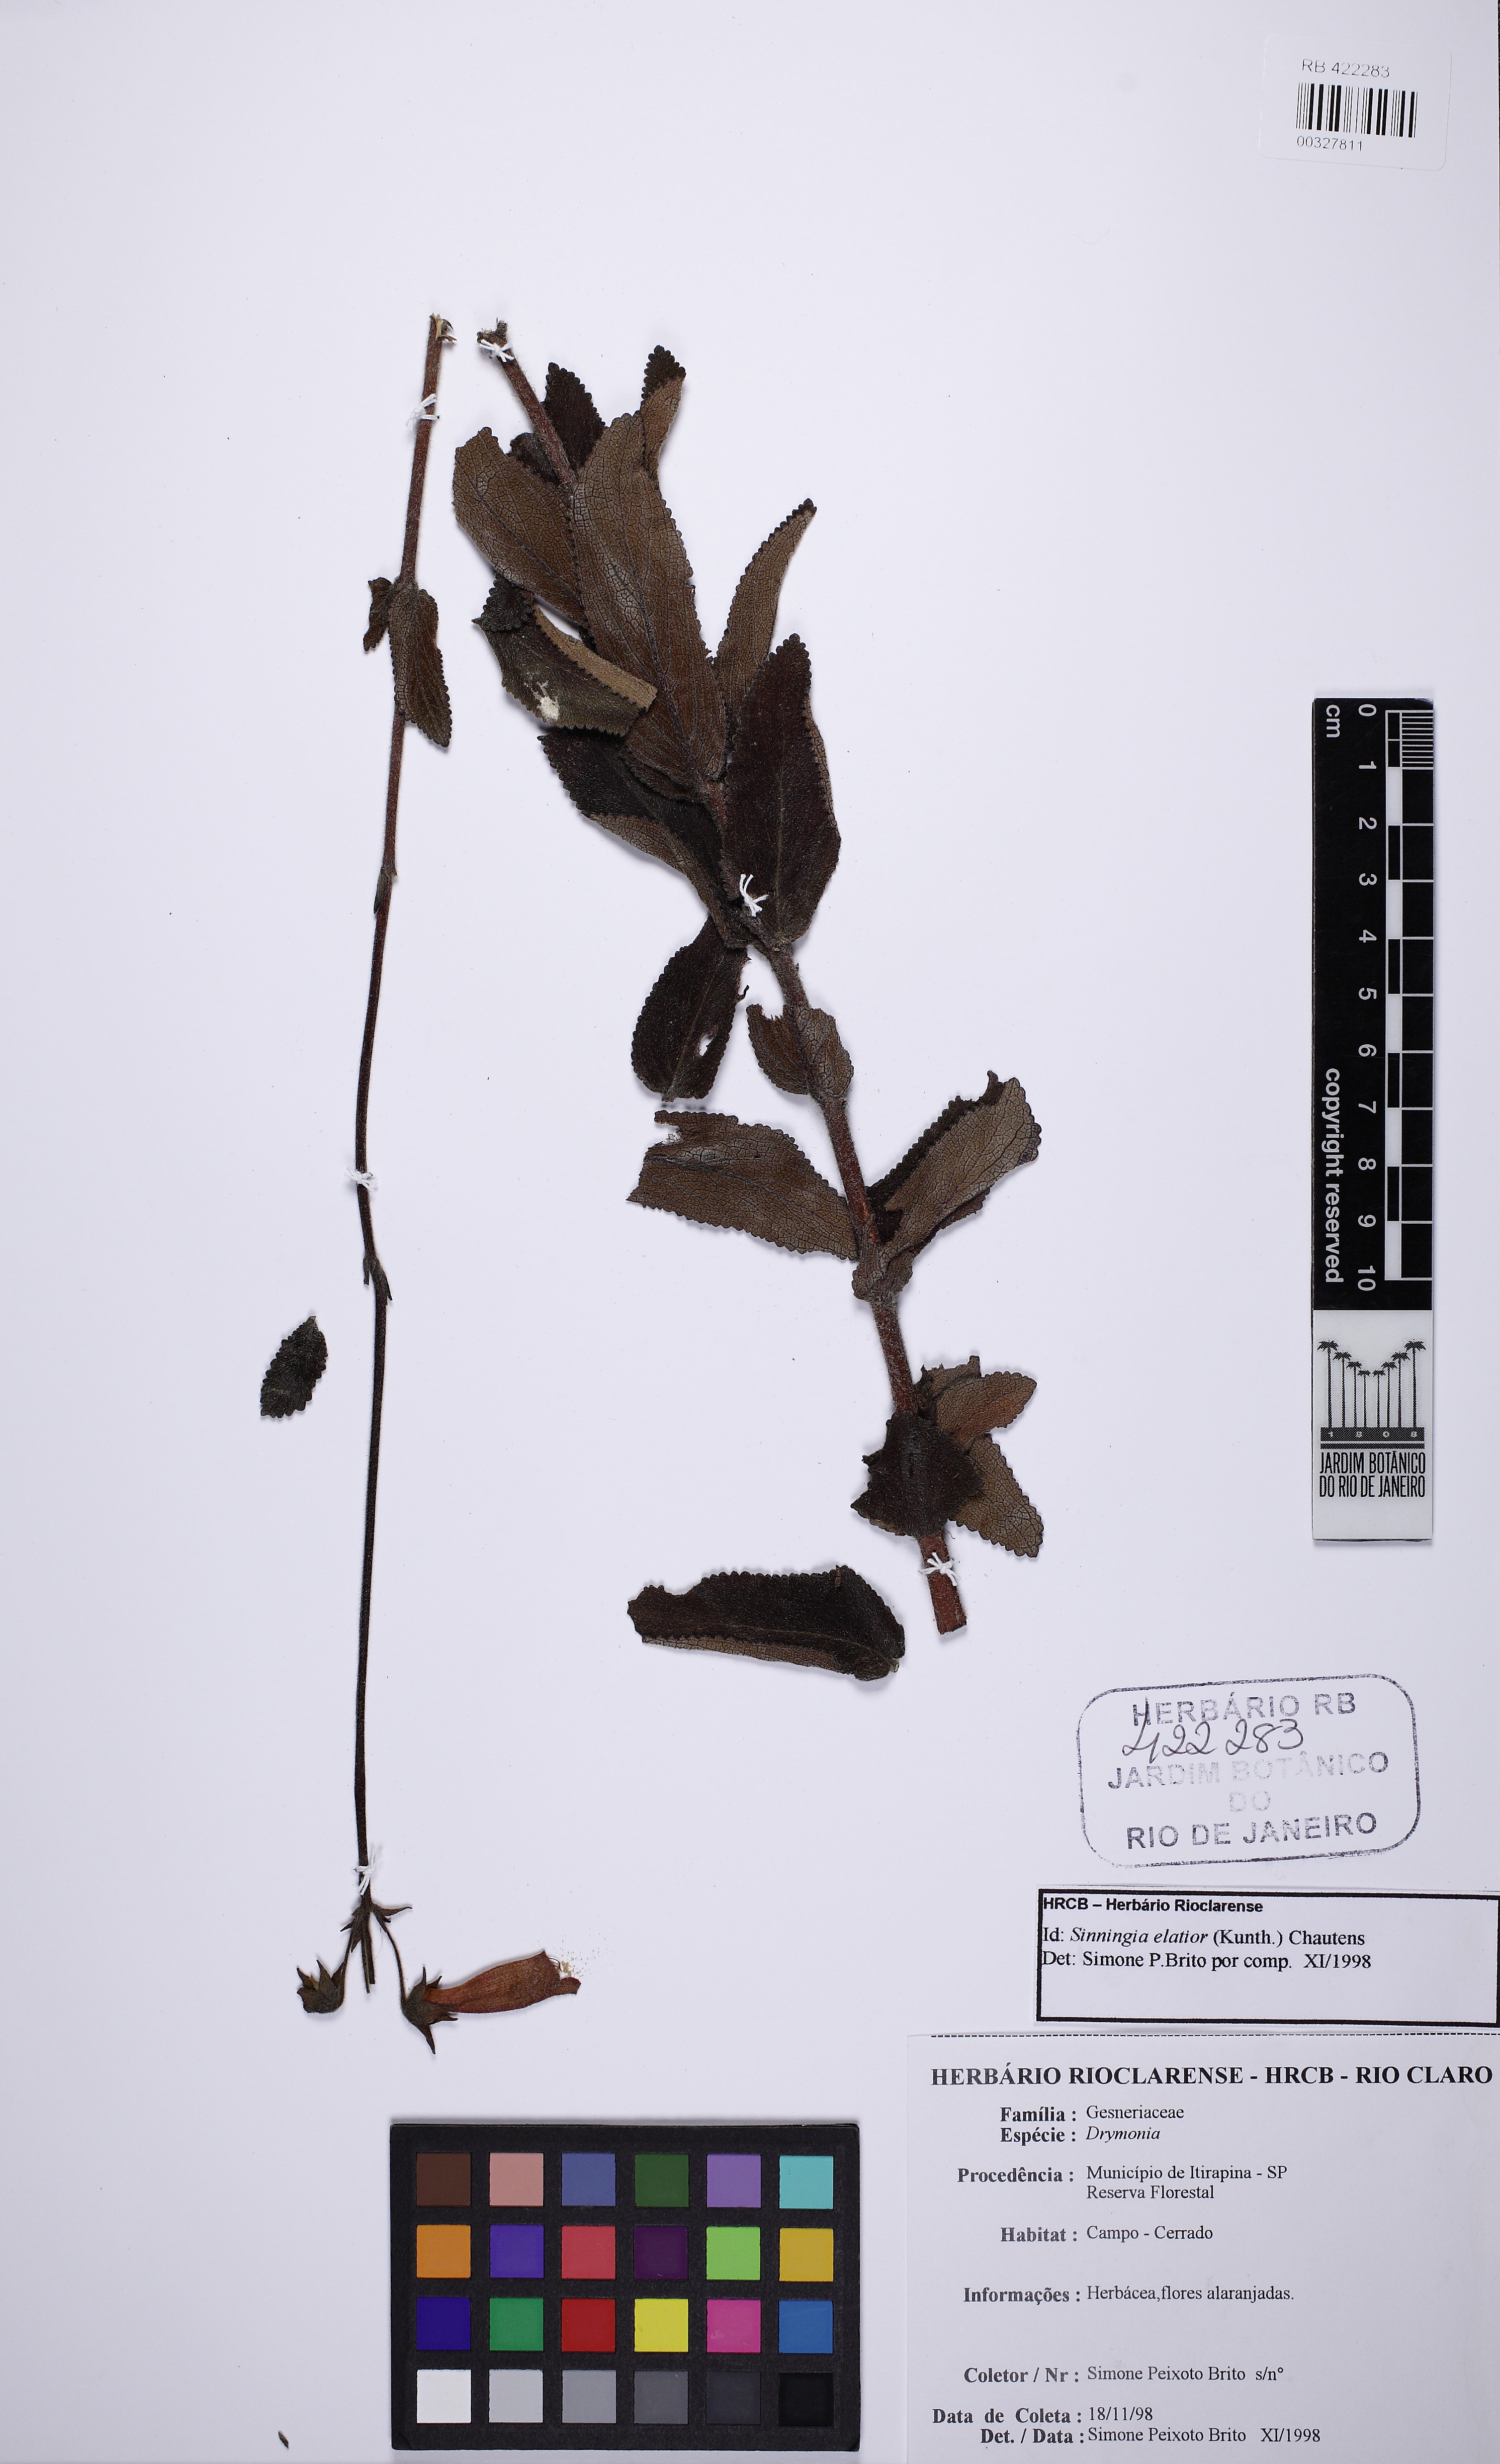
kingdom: Plantae
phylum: Tracheophyta
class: Magnoliopsida
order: Lamiales
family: Gesneriaceae
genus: Sinningia
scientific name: Sinningia elatior
